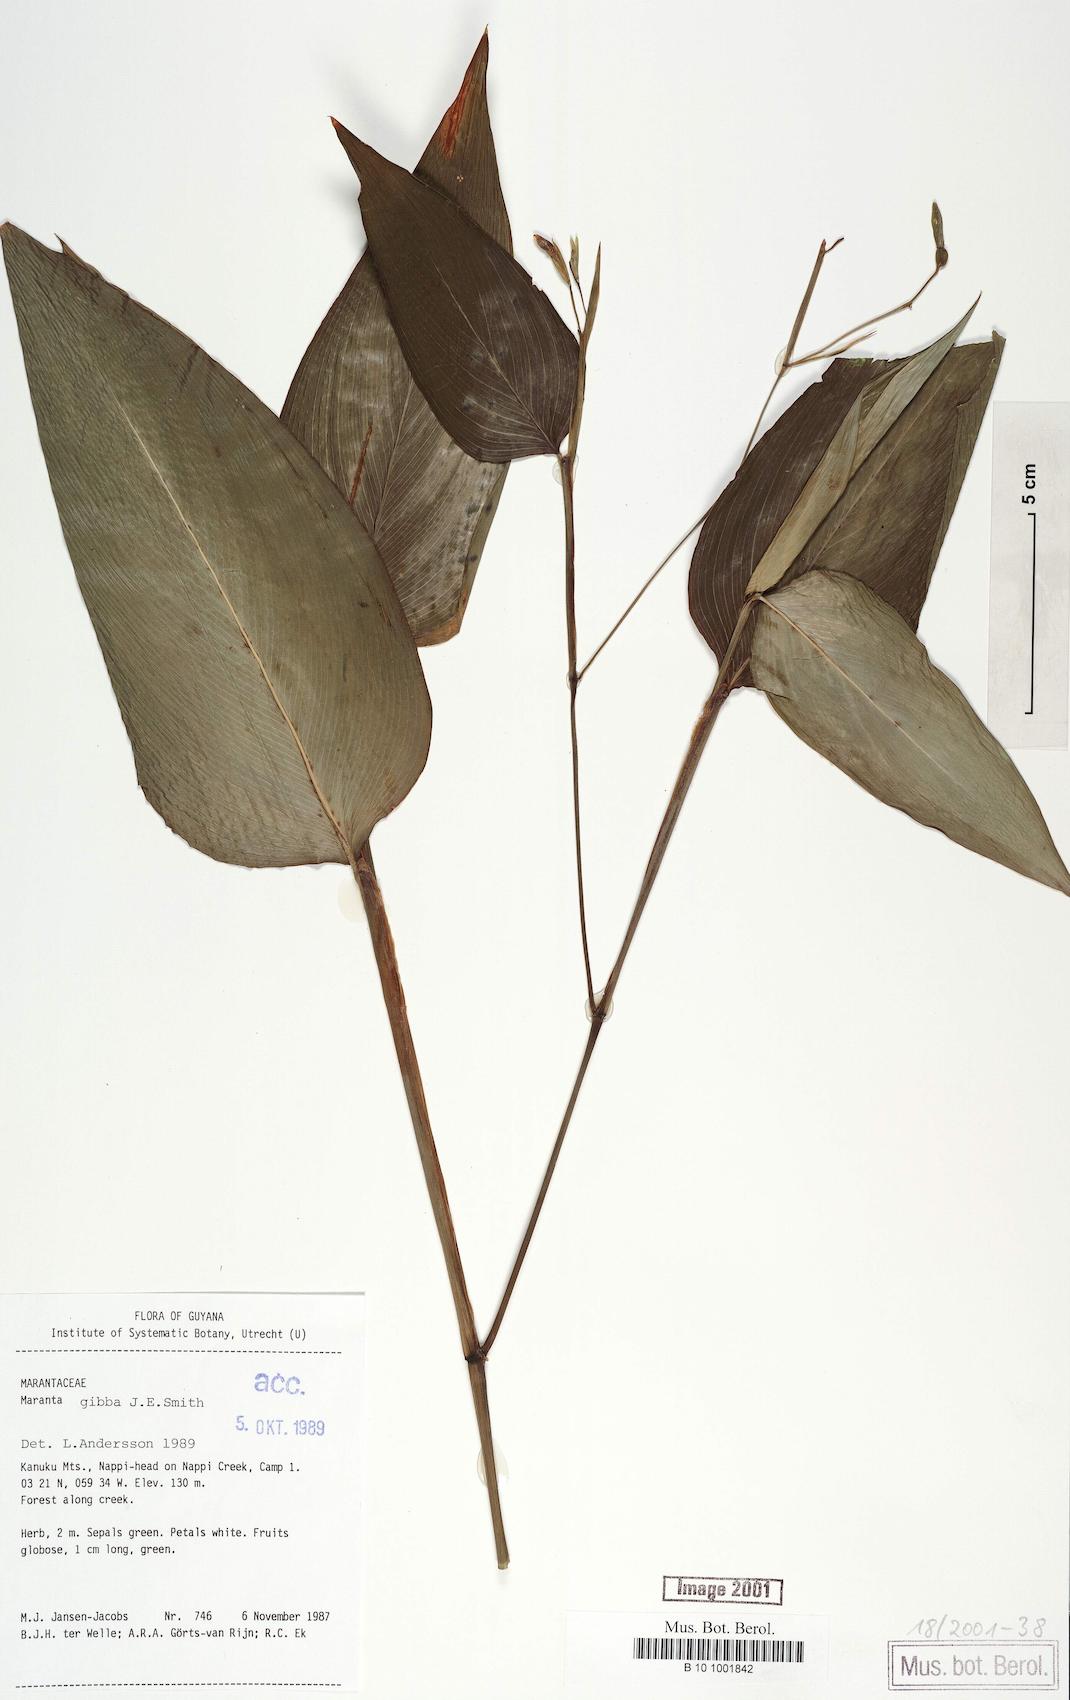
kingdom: Plantae
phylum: Tracheophyta
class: Liliopsida
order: Zingiberales
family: Marantaceae
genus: Maranta
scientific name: Maranta gibba
